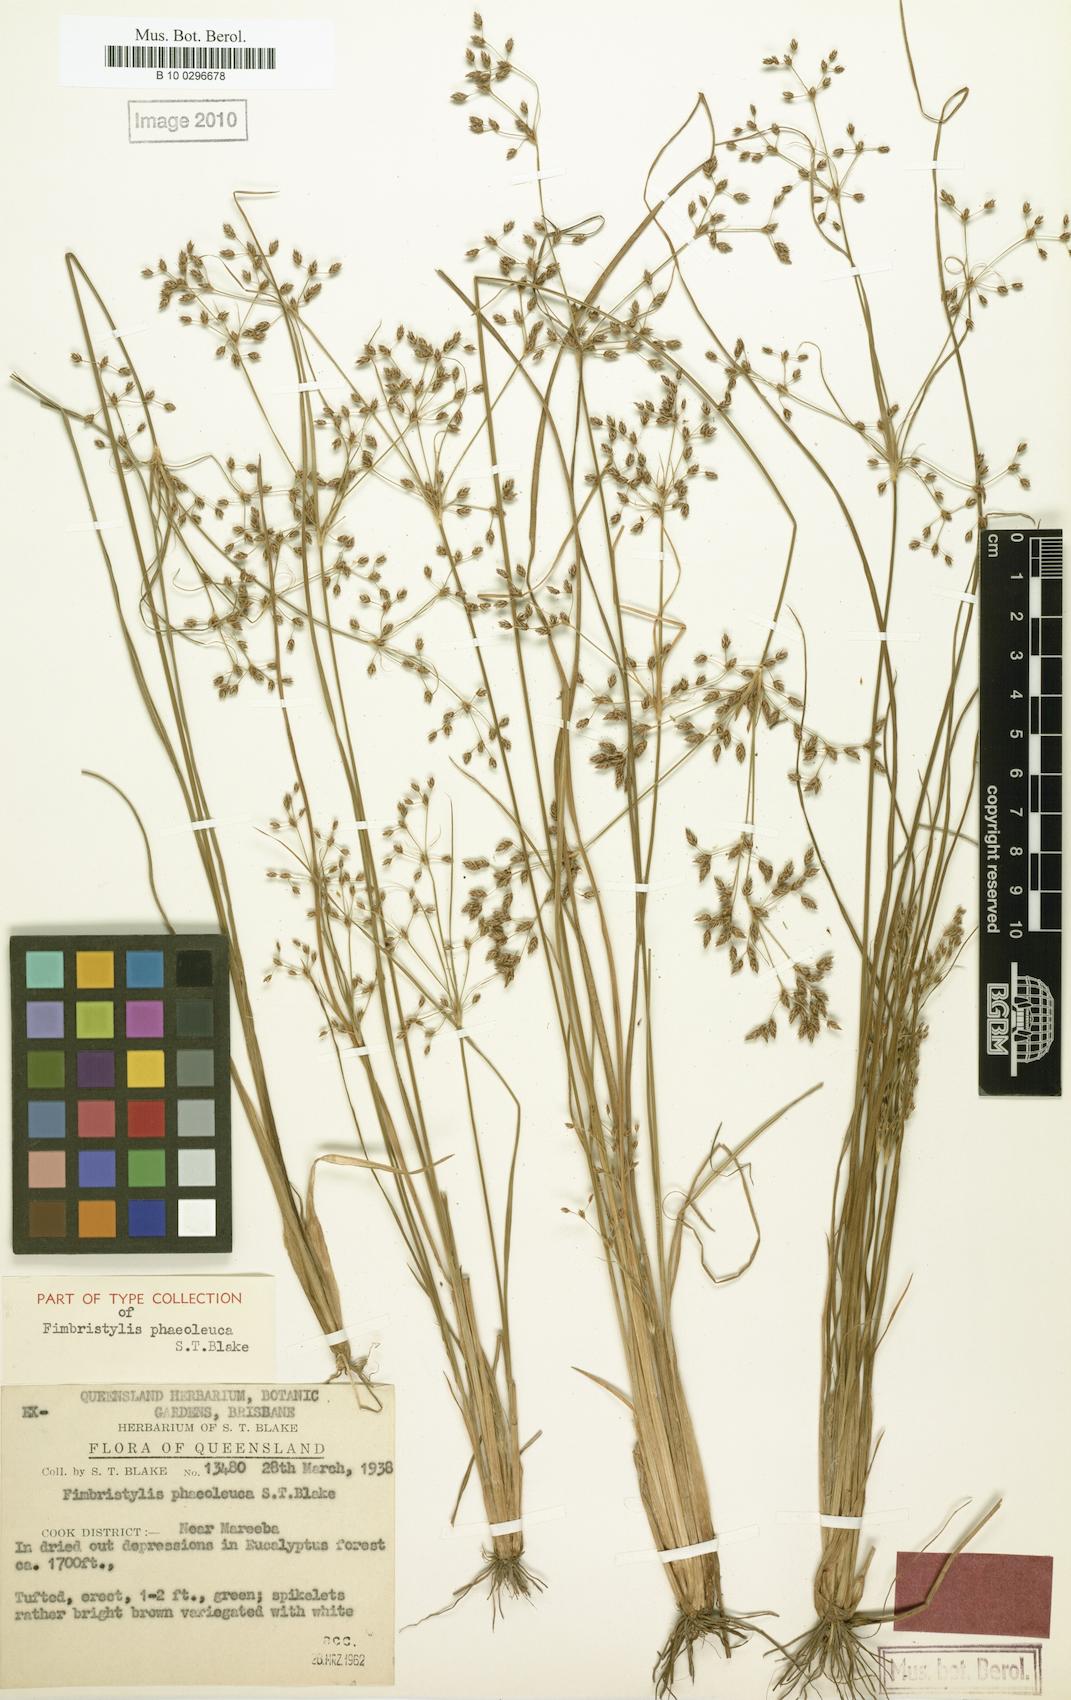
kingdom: Plantae
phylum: Tracheophyta
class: Liliopsida
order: Poales
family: Cyperaceae
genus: Fimbristylis
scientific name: Fimbristylis phaeoleuca
